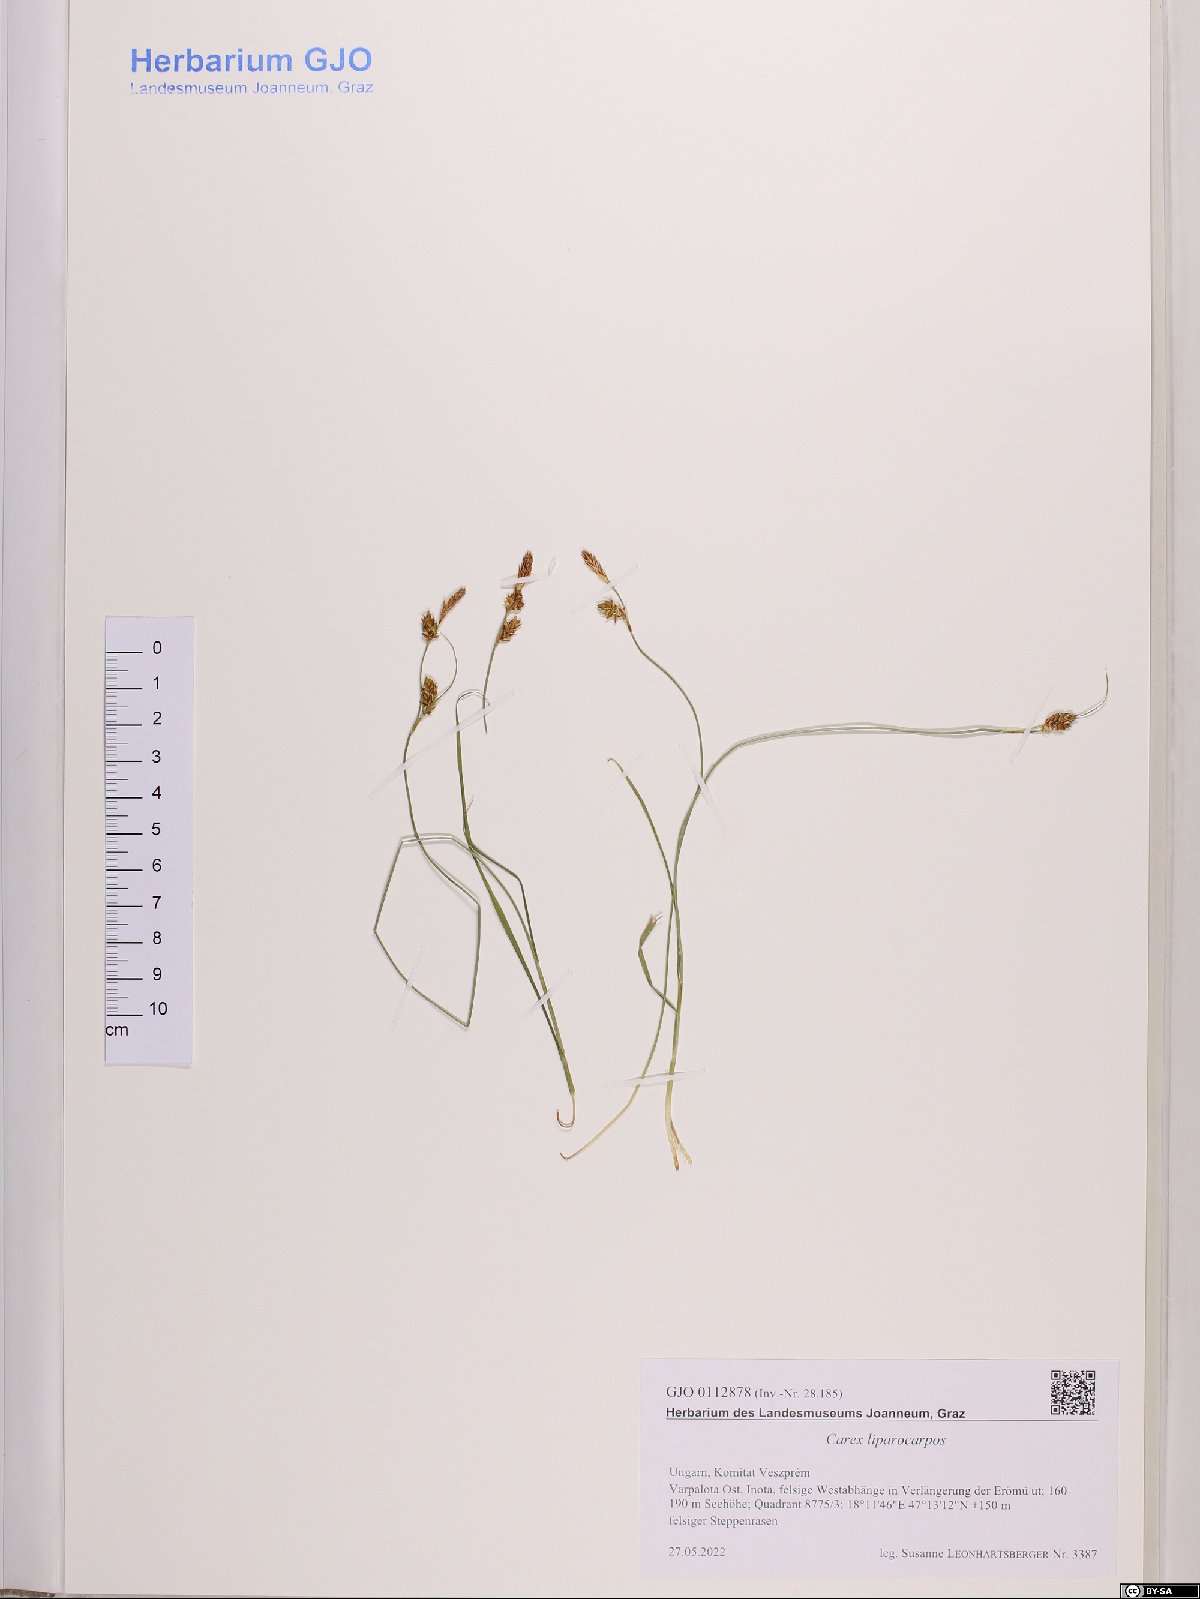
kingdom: Plantae
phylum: Tracheophyta
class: Liliopsida
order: Poales
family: Cyperaceae
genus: Carex
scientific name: Carex liparocarpos
